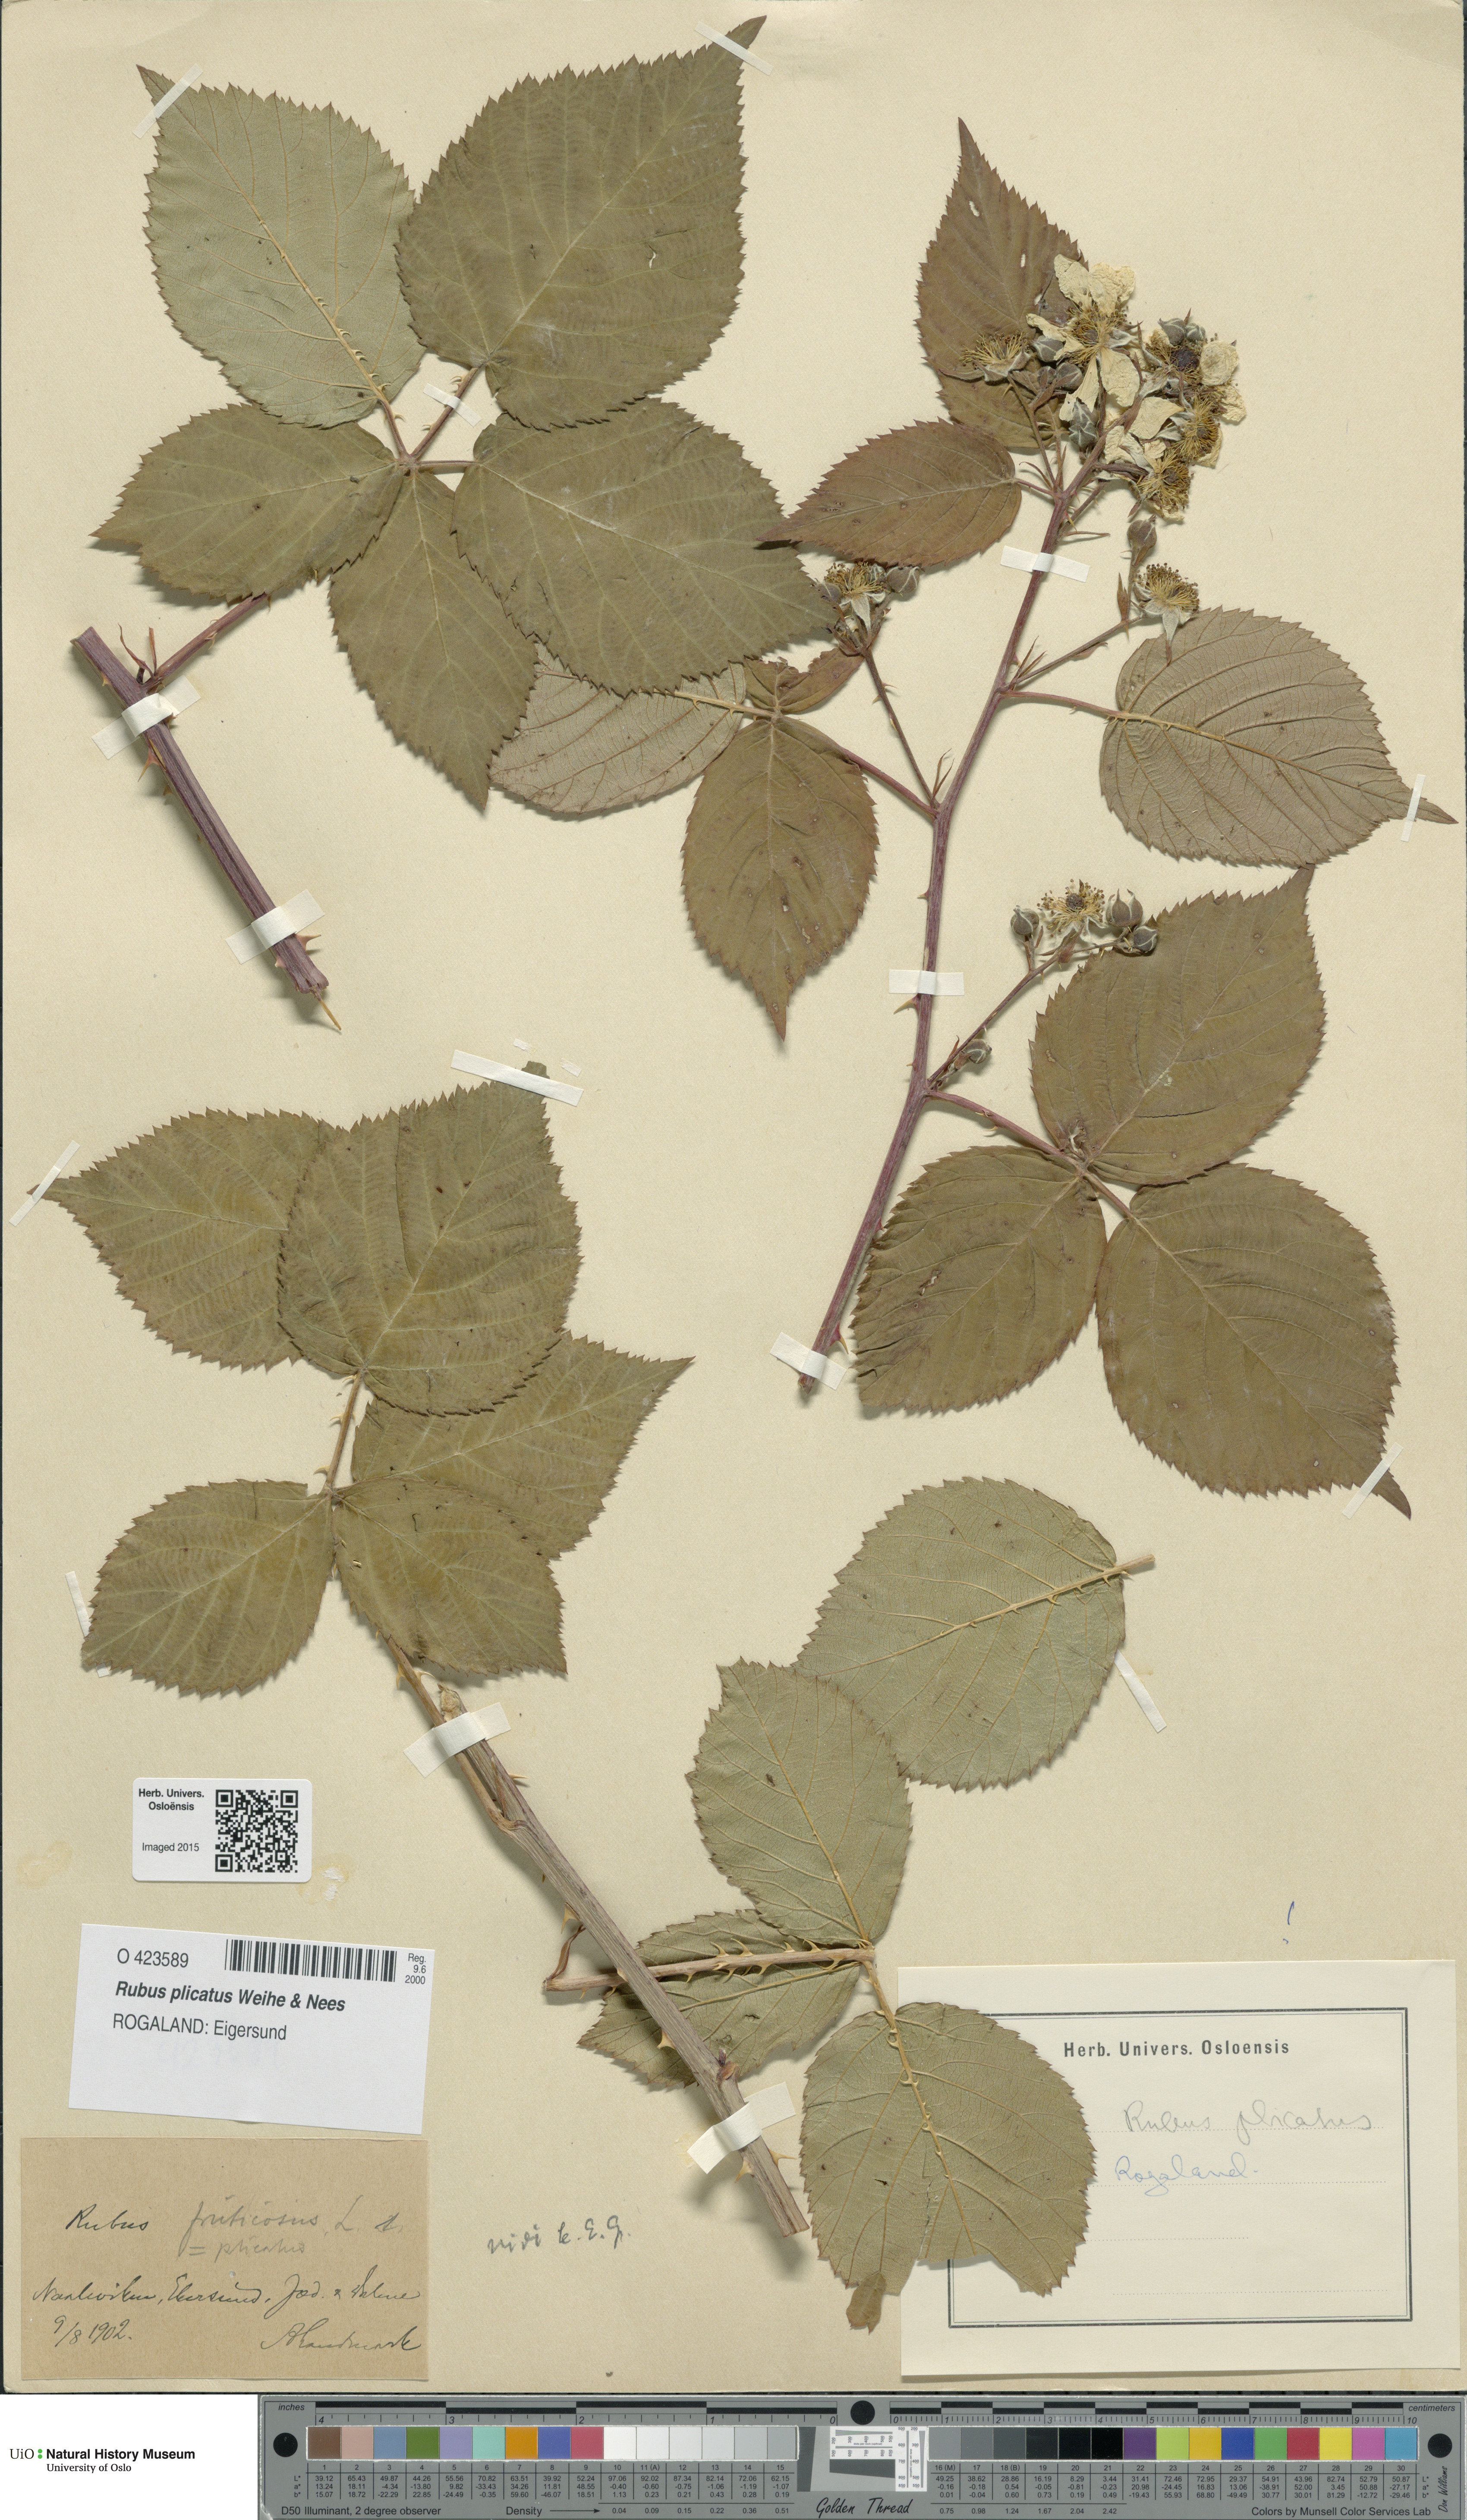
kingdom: Plantae
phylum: Tracheophyta
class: Magnoliopsida
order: Rosales
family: Rosaceae
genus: Rubus
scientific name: Rubus fruticosus
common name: Blackberry, bramble
